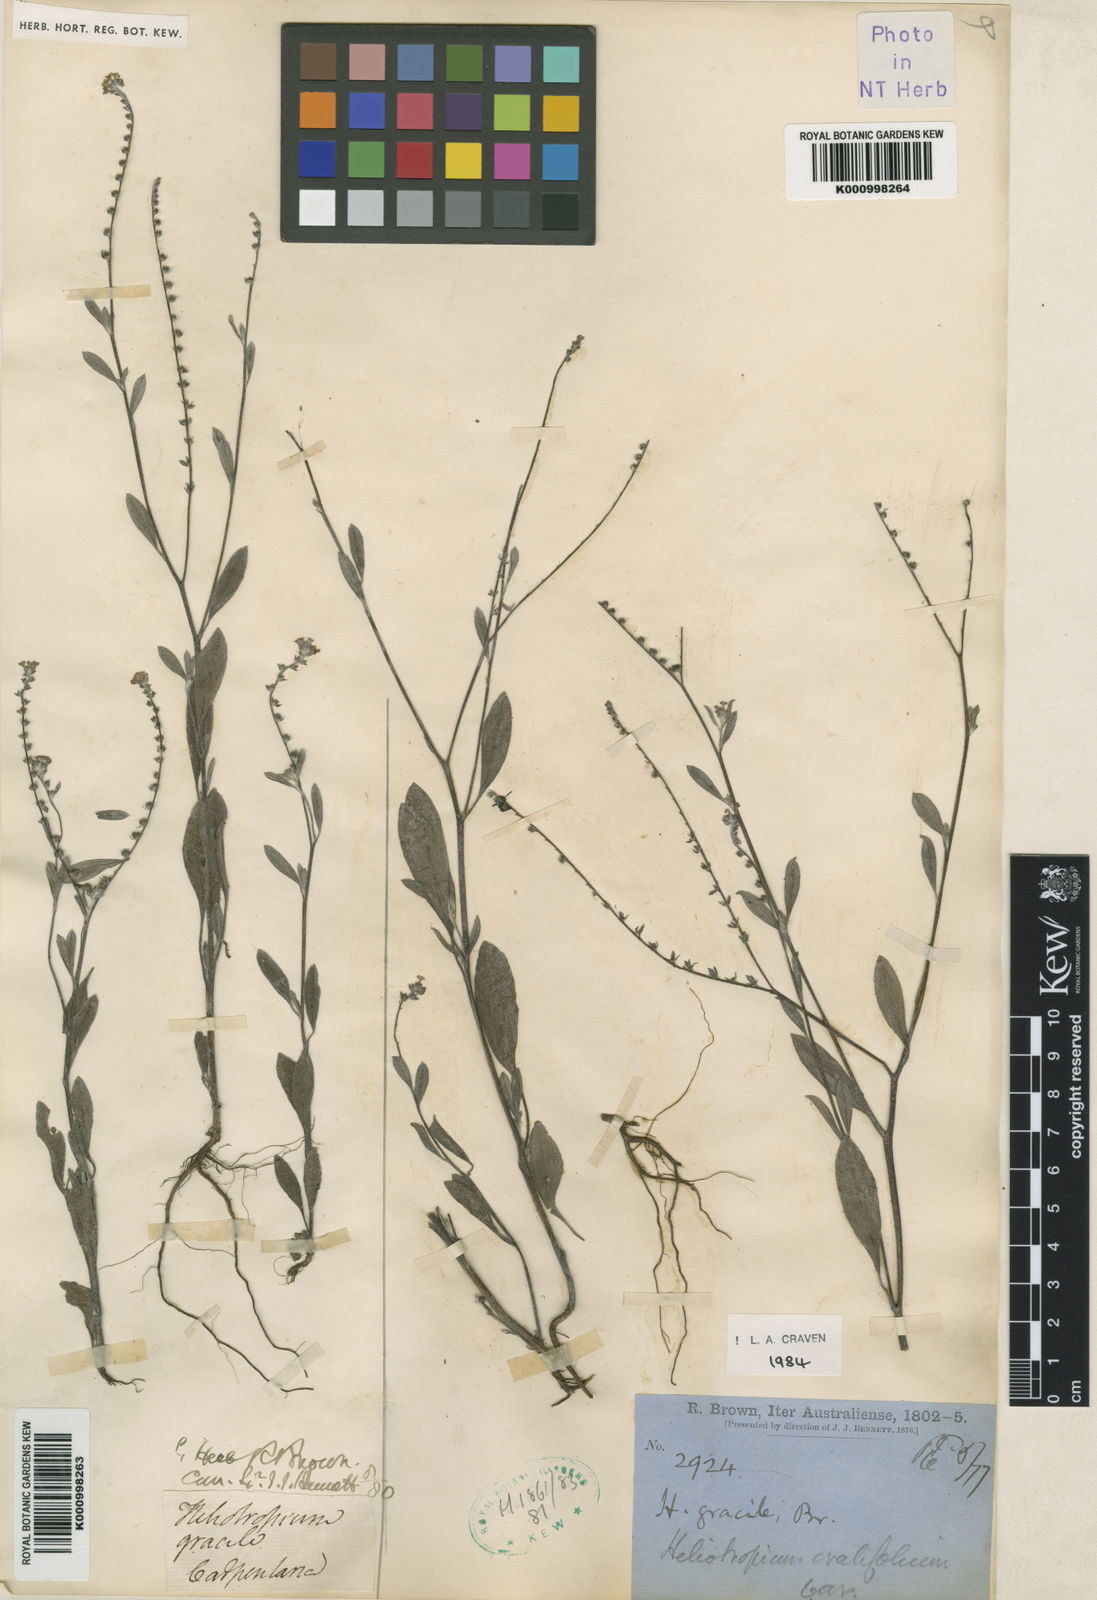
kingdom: Plantae
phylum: Tracheophyta
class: Magnoliopsida
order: Boraginales
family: Heliotropiaceae
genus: Euploca
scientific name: Euploca ovalifolia
